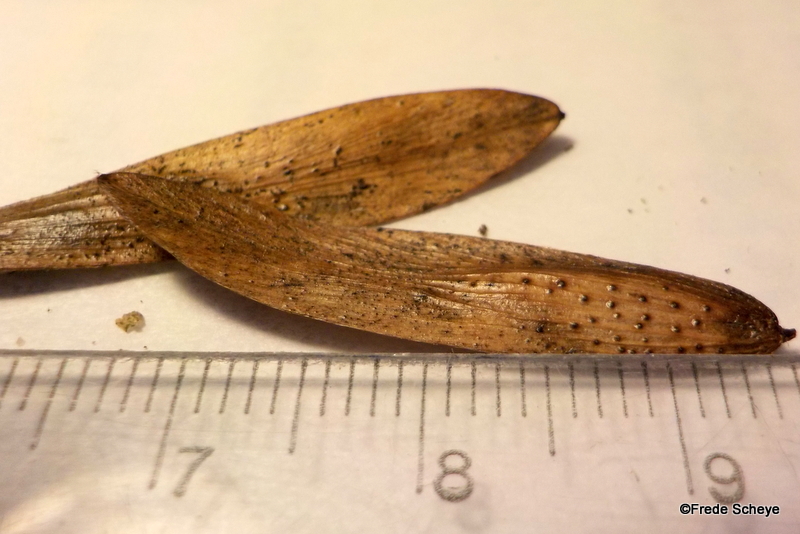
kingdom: Fungi
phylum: Ascomycota
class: Sordariomycetes
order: Diaporthales
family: Diaporthaceae
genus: Diaporthe
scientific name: Diaporthe samaricola
